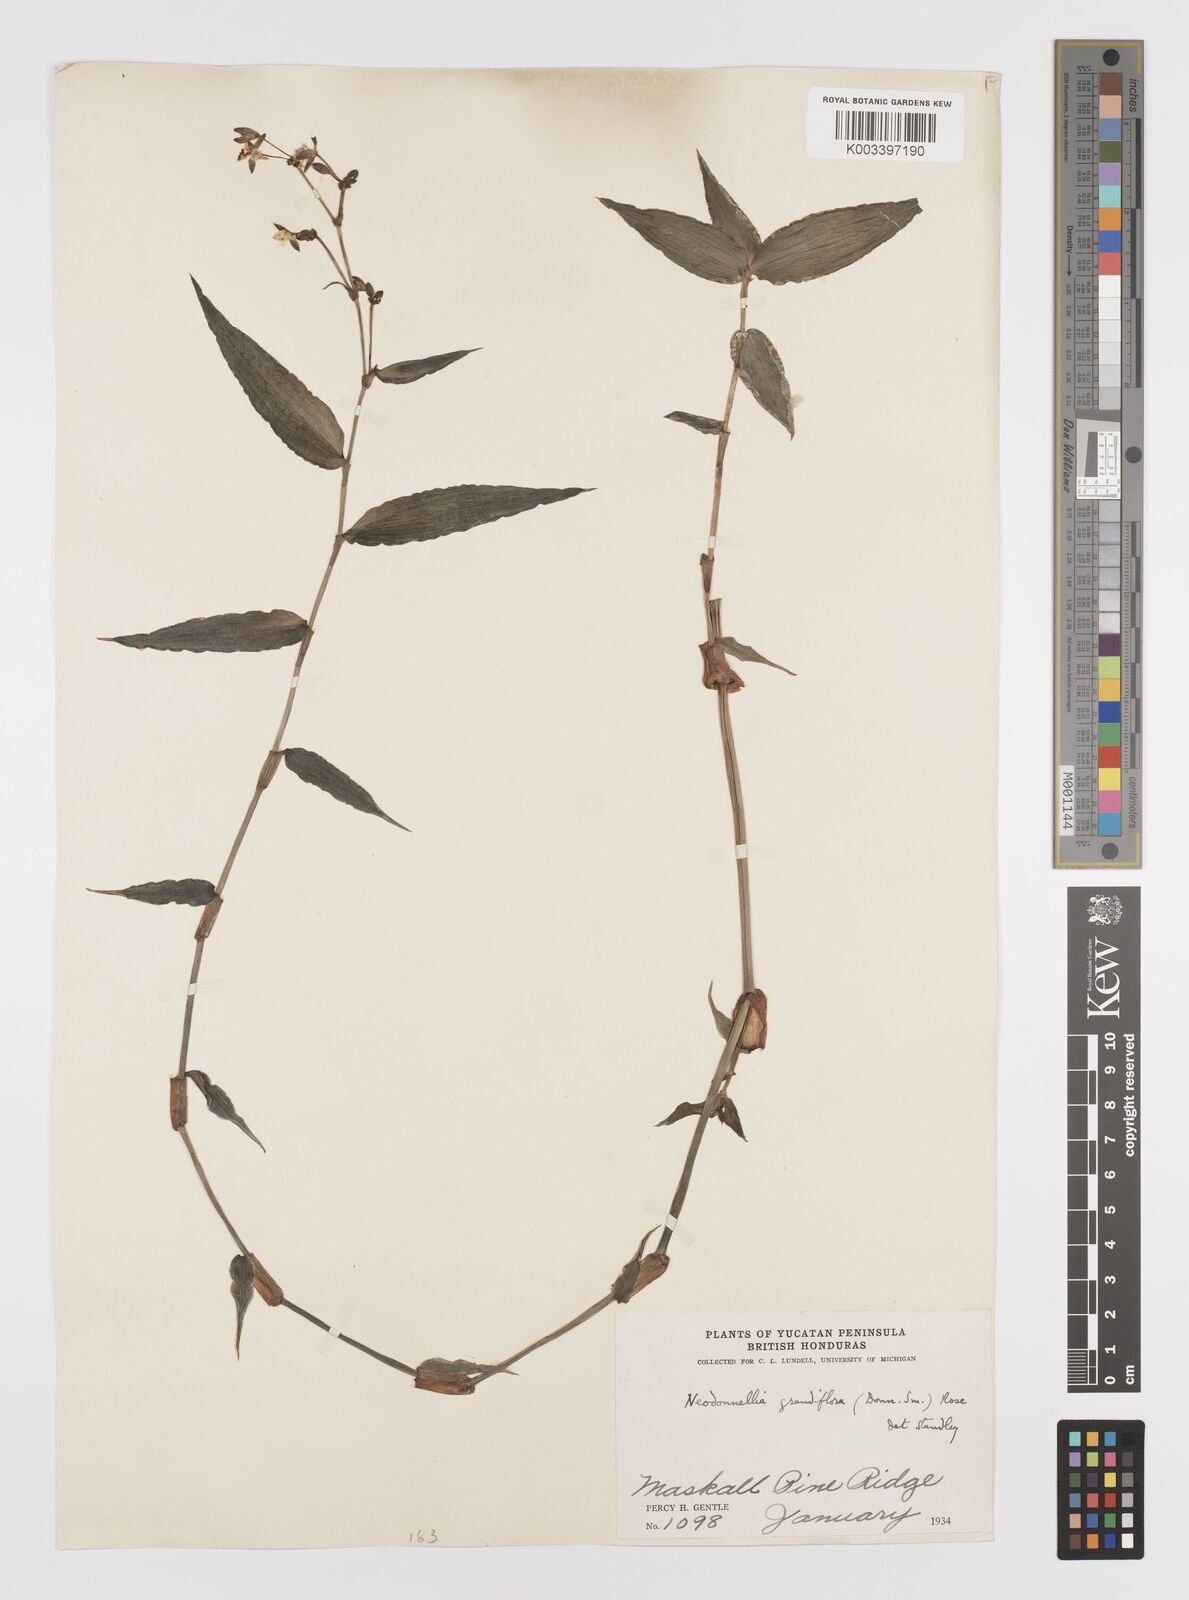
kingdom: Plantae
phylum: Tracheophyta
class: Liliopsida
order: Commelinales
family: Commelinaceae
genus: Callisia
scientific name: Callisia grandiflora
